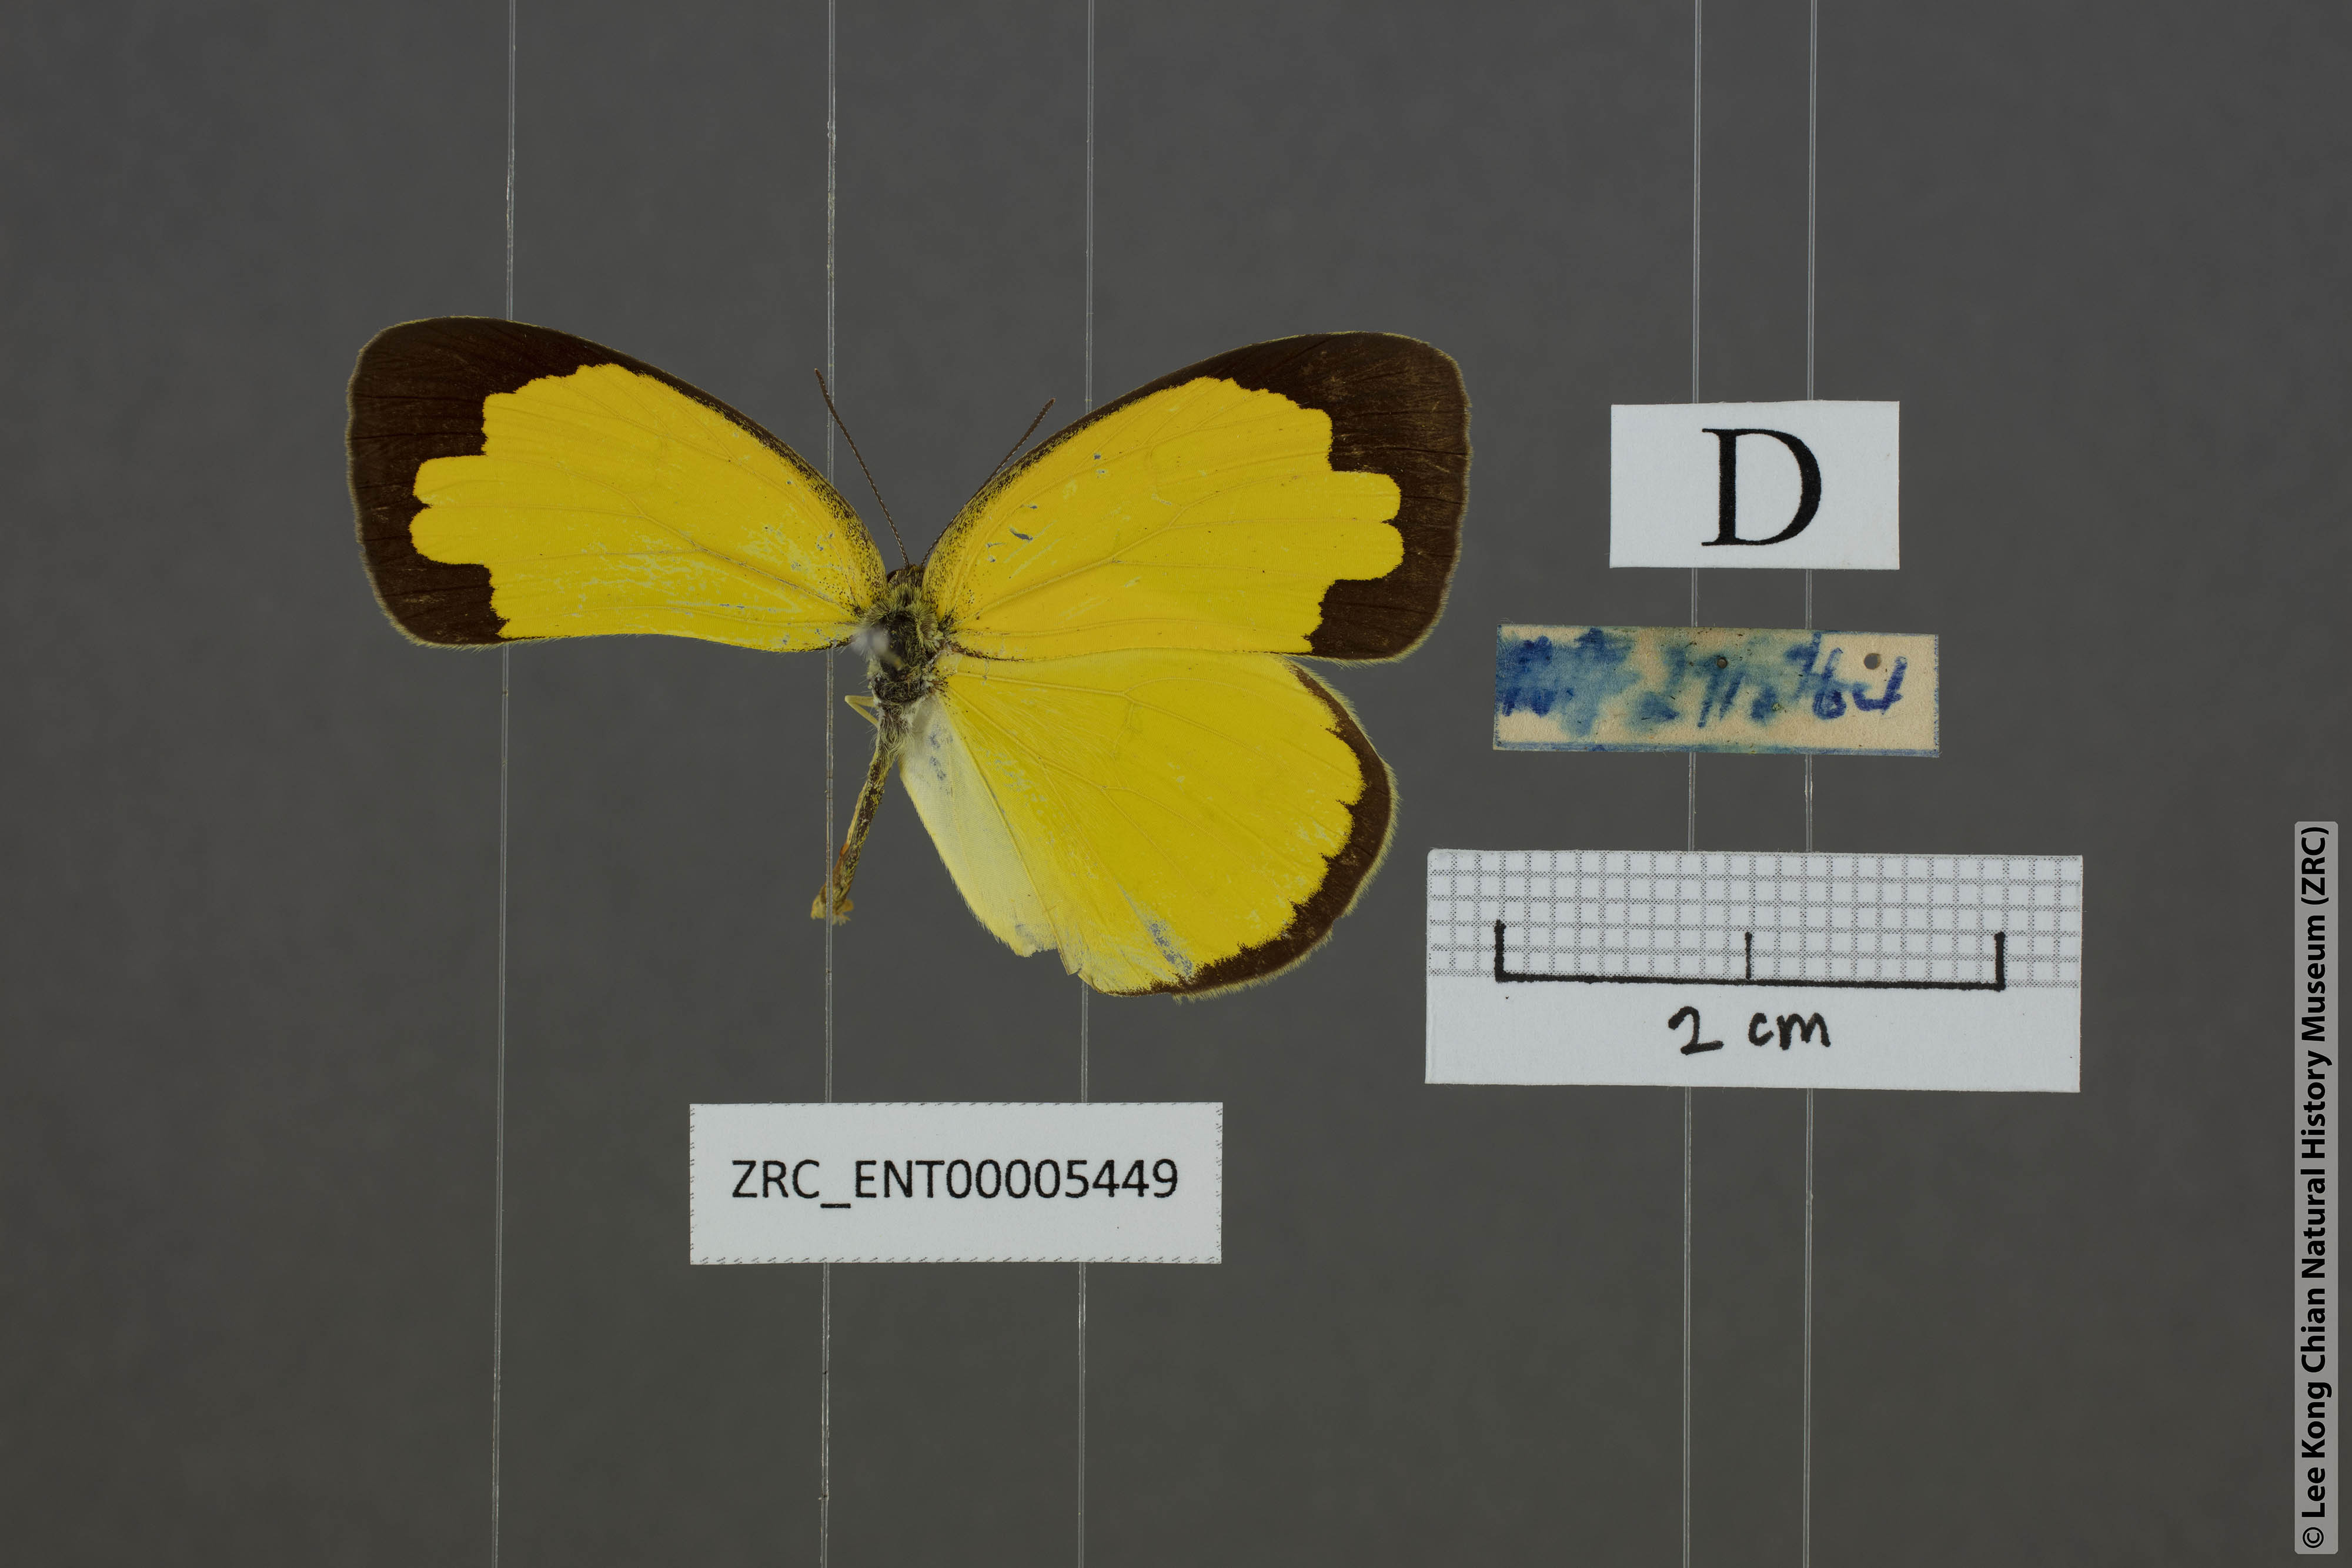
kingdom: Animalia
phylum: Arthropoda
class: Insecta
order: Lepidoptera
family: Pieridae
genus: Eurema
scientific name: Eurema hecabe
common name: Pale grass yellow
